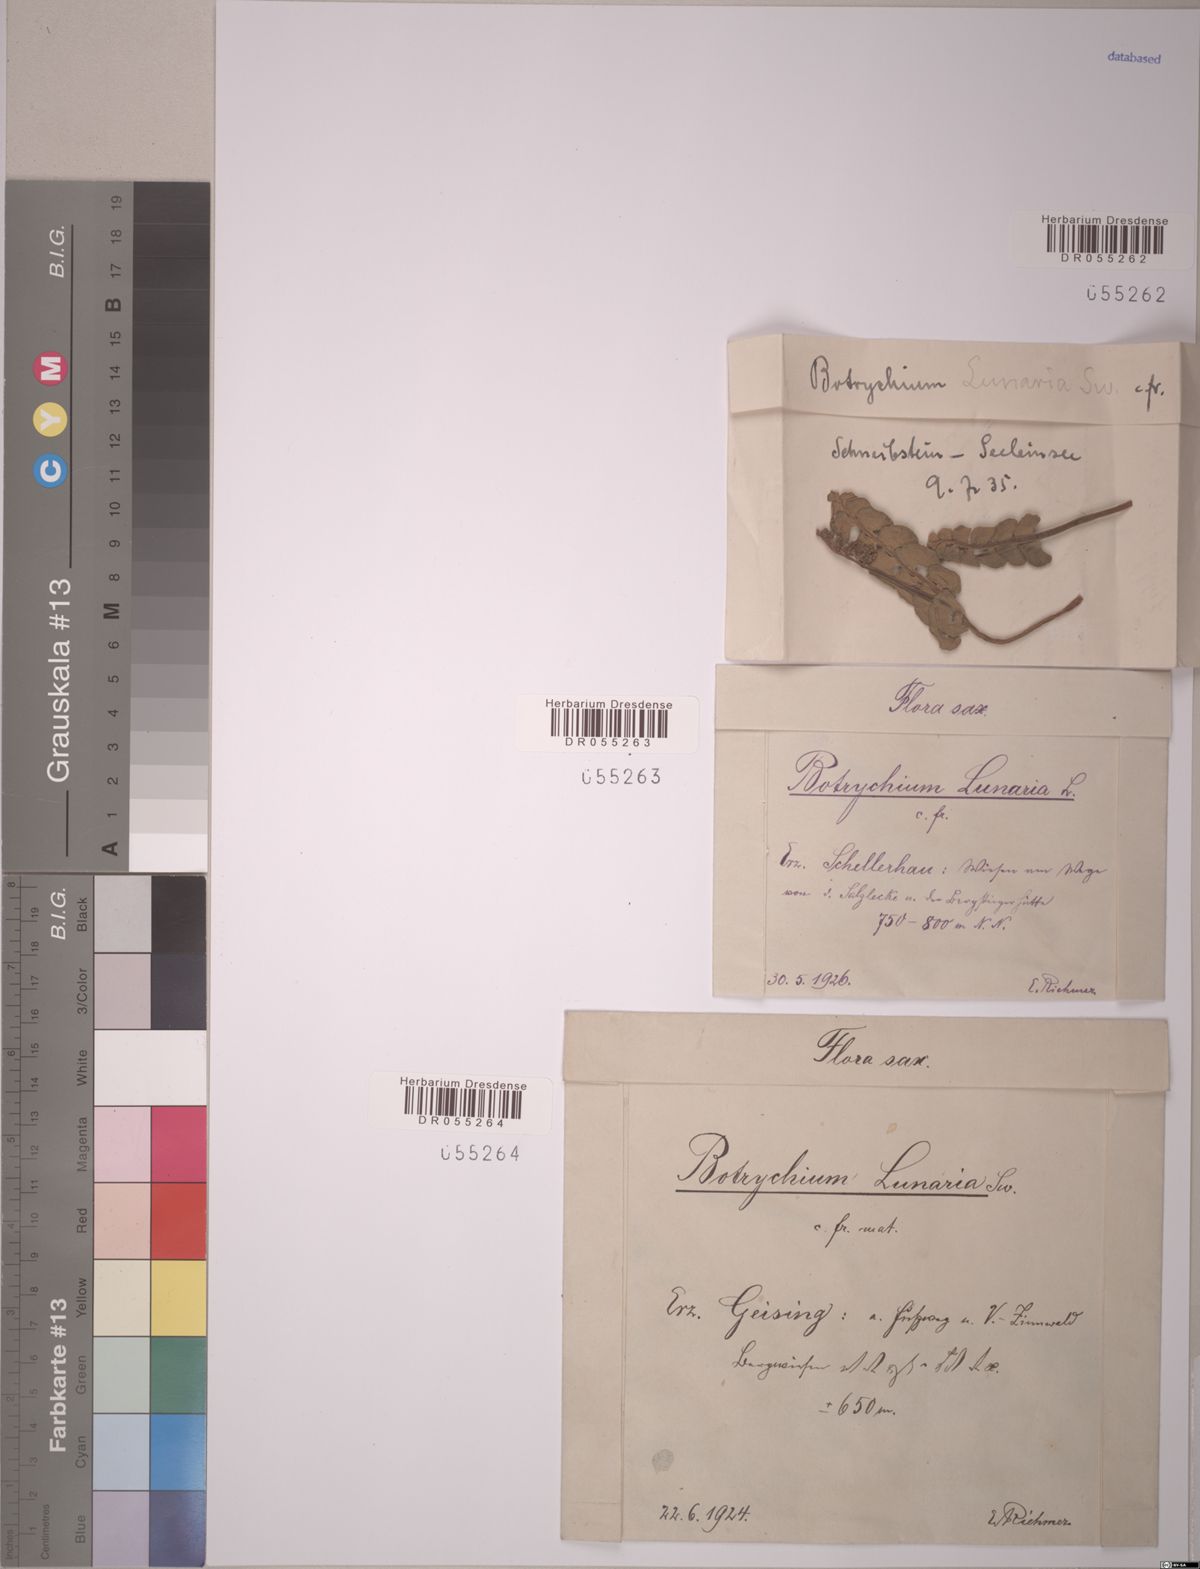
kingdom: Plantae
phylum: Tracheophyta
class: Polypodiopsida
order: Ophioglossales
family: Ophioglossaceae
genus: Botrychium
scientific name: Botrychium lunaria
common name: Moonwort
